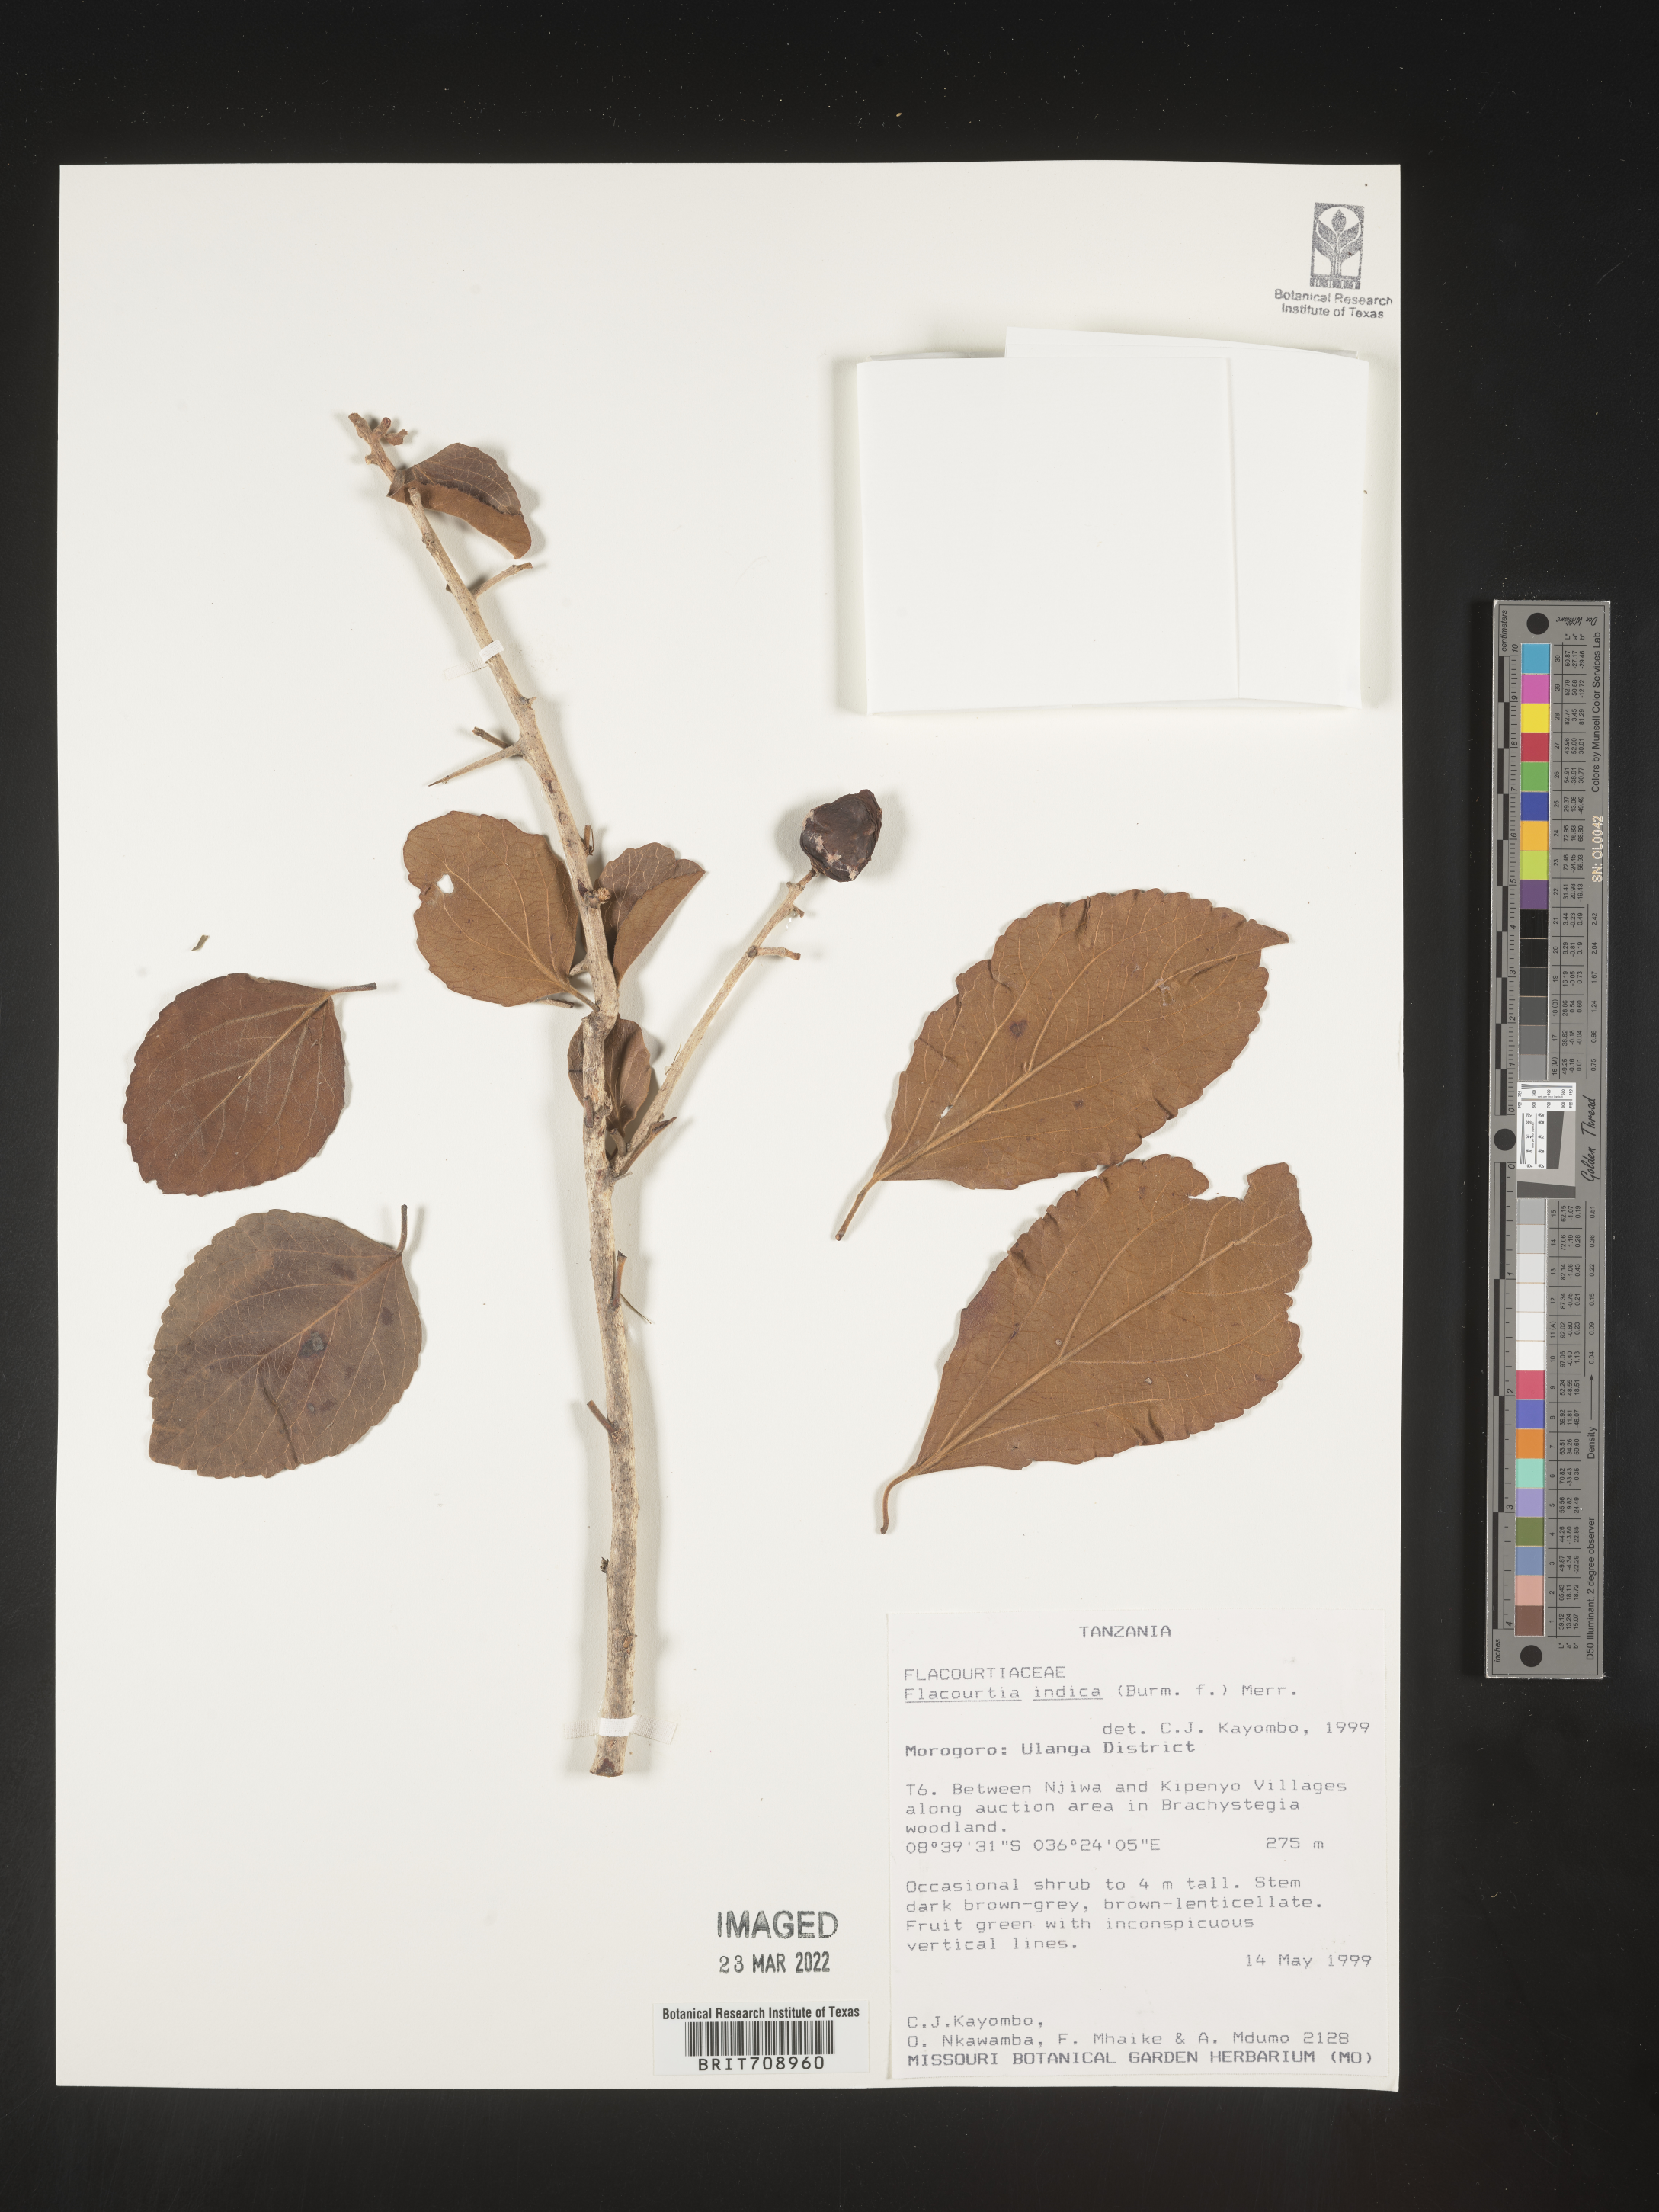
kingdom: Plantae
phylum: Tracheophyta
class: Magnoliopsida
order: Malpighiales
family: Salicaceae
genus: Flacourtia
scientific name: Flacourtia
